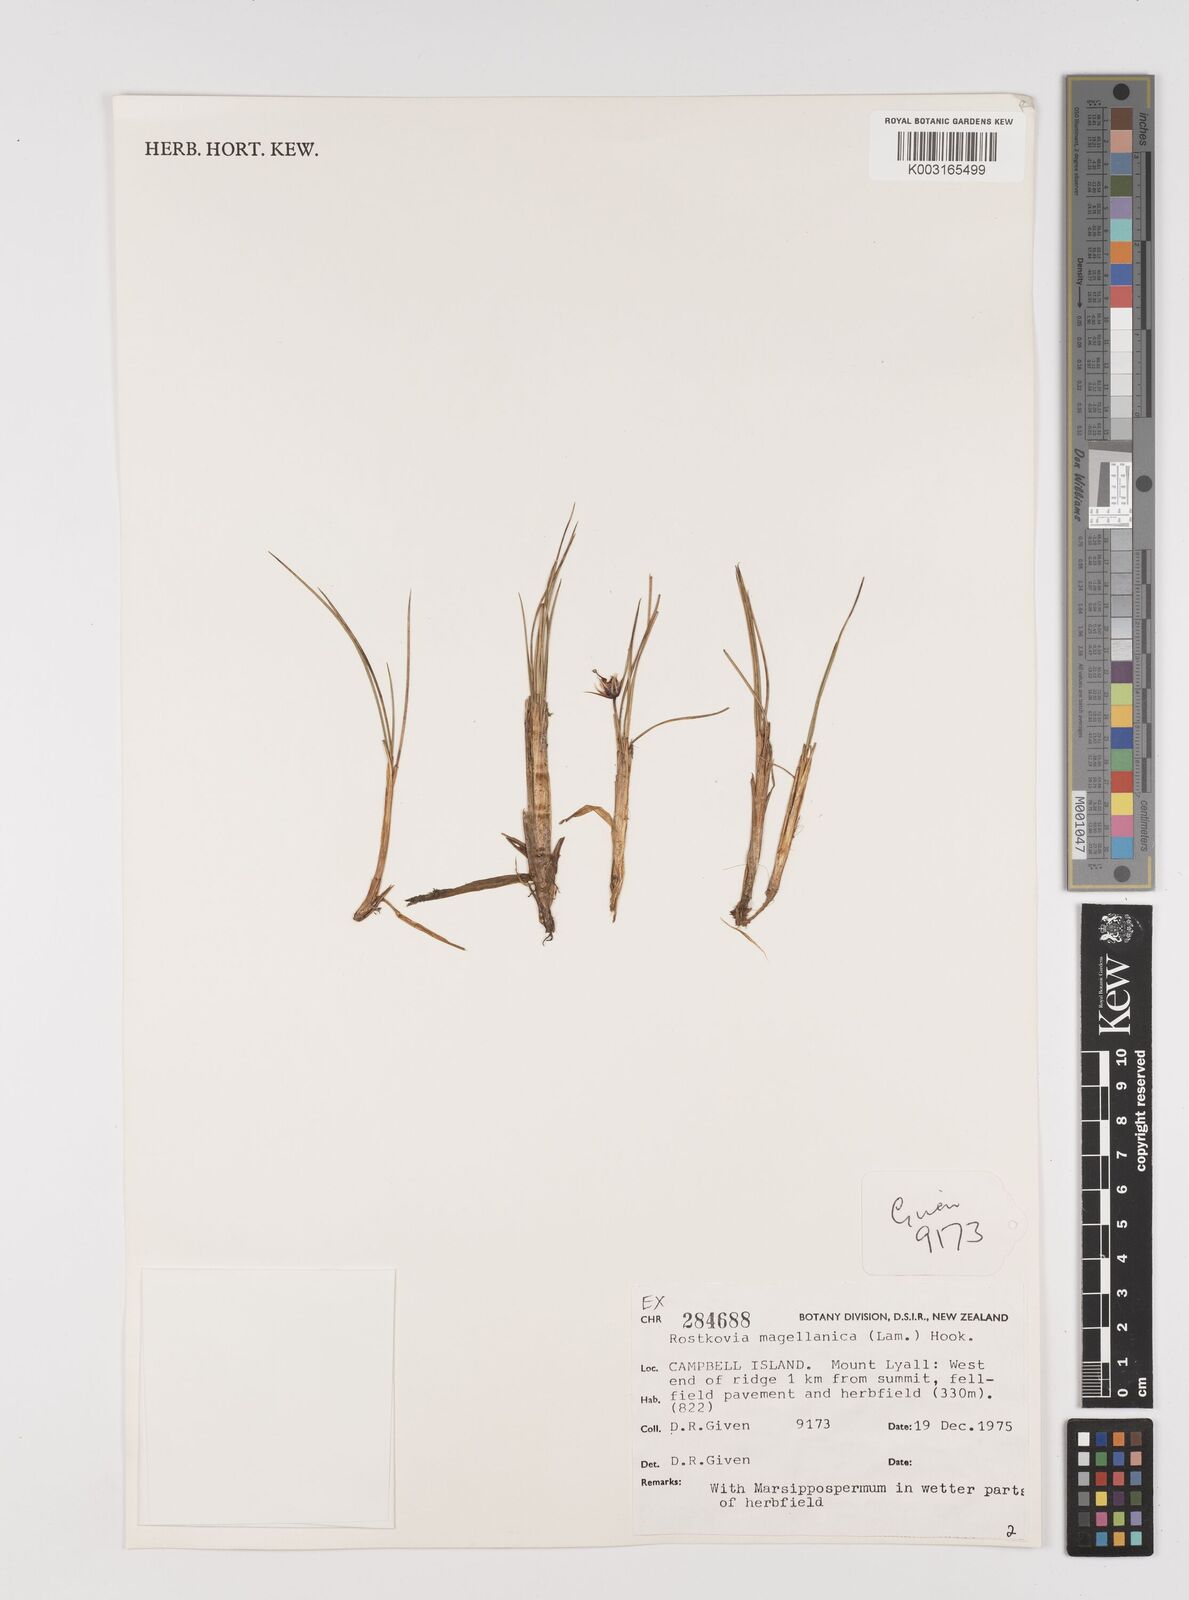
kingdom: Plantae
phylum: Tracheophyta
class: Liliopsida
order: Poales
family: Juncaceae
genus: Rostkovia
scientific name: Rostkovia magellanica
